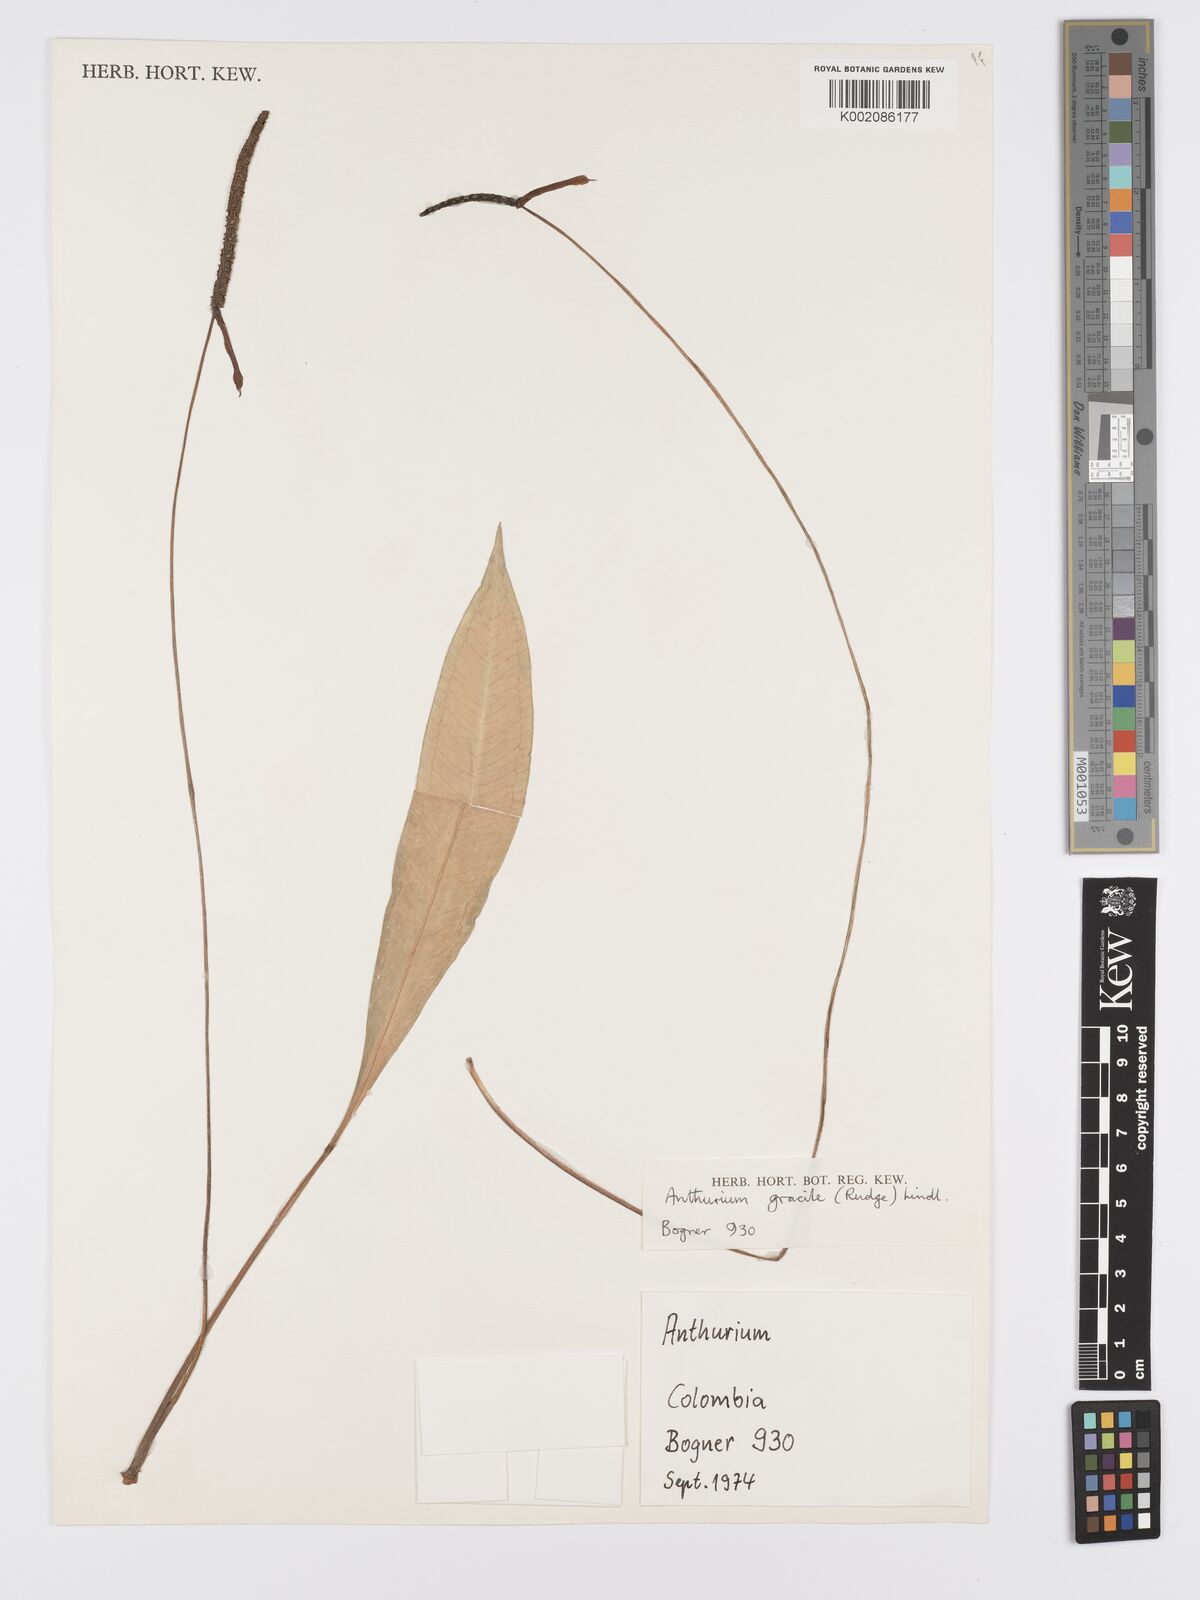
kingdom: Plantae
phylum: Tracheophyta
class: Liliopsida
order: Alismatales
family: Araceae
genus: Anthurium
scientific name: Anthurium gracile
